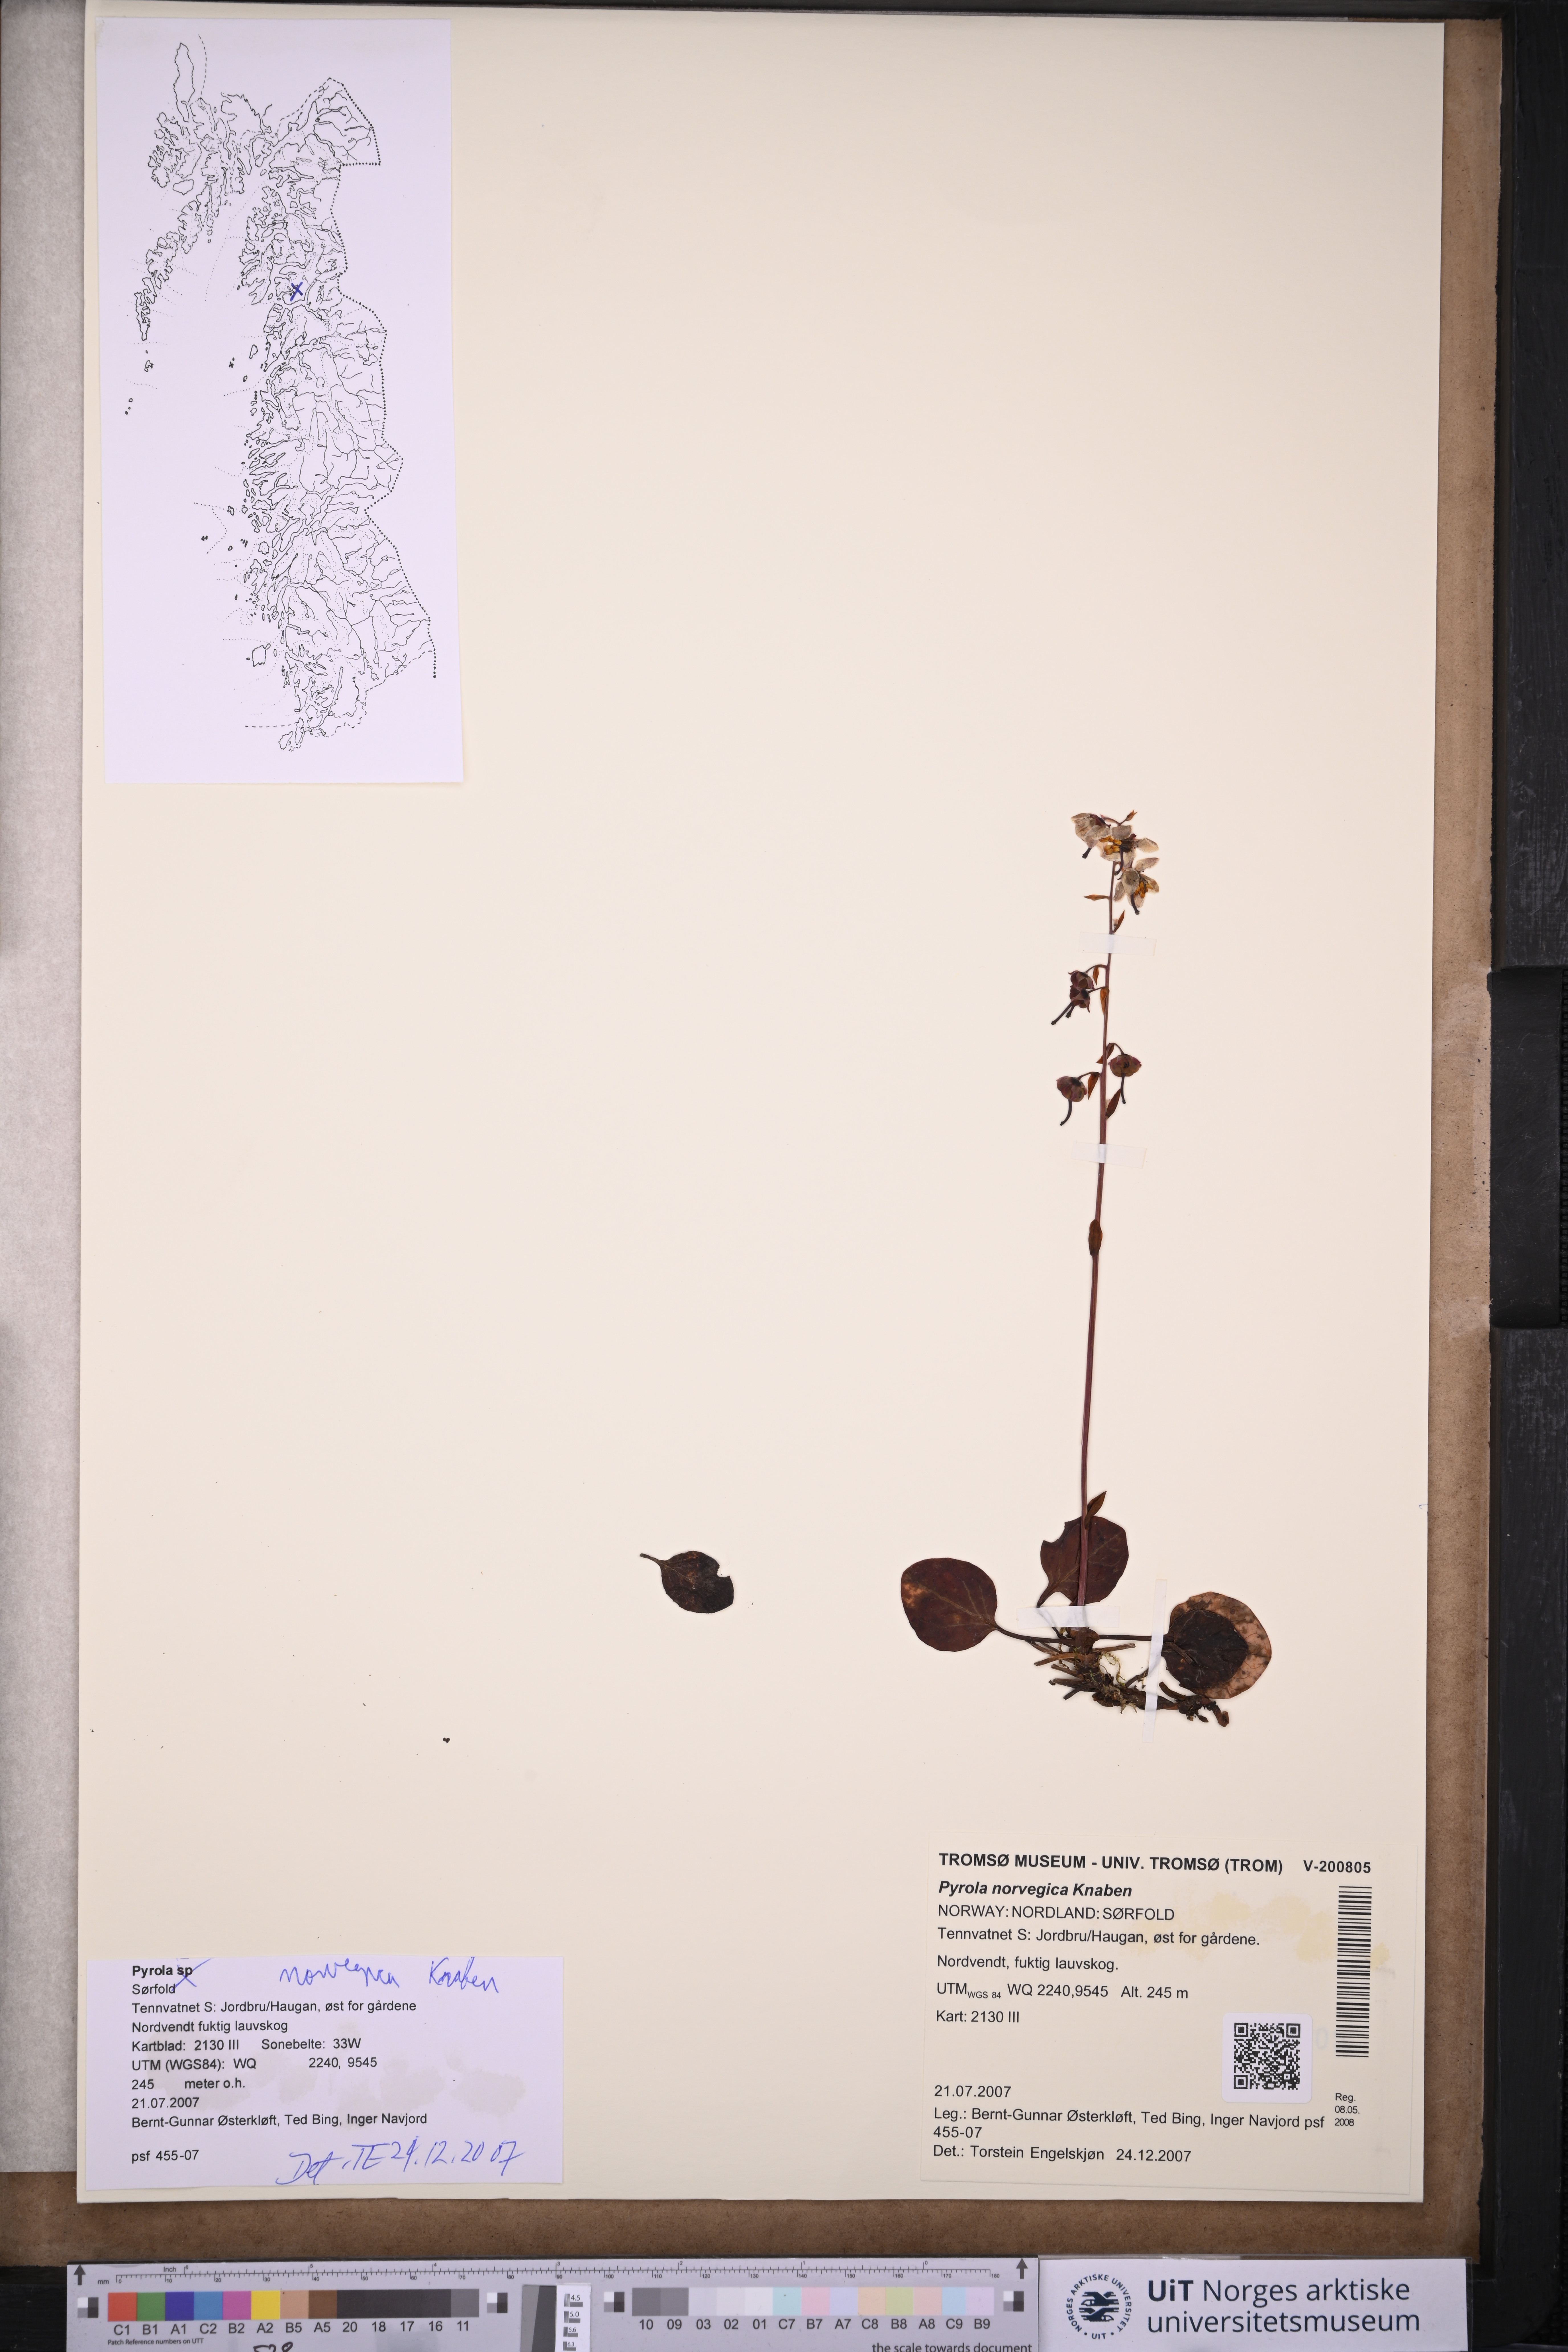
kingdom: Plantae
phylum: Tracheophyta
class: Magnoliopsida
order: Ericales
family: Ericaceae
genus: Pyrola
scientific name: Pyrola rotundifolia
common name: Round-leaved wintergreen
